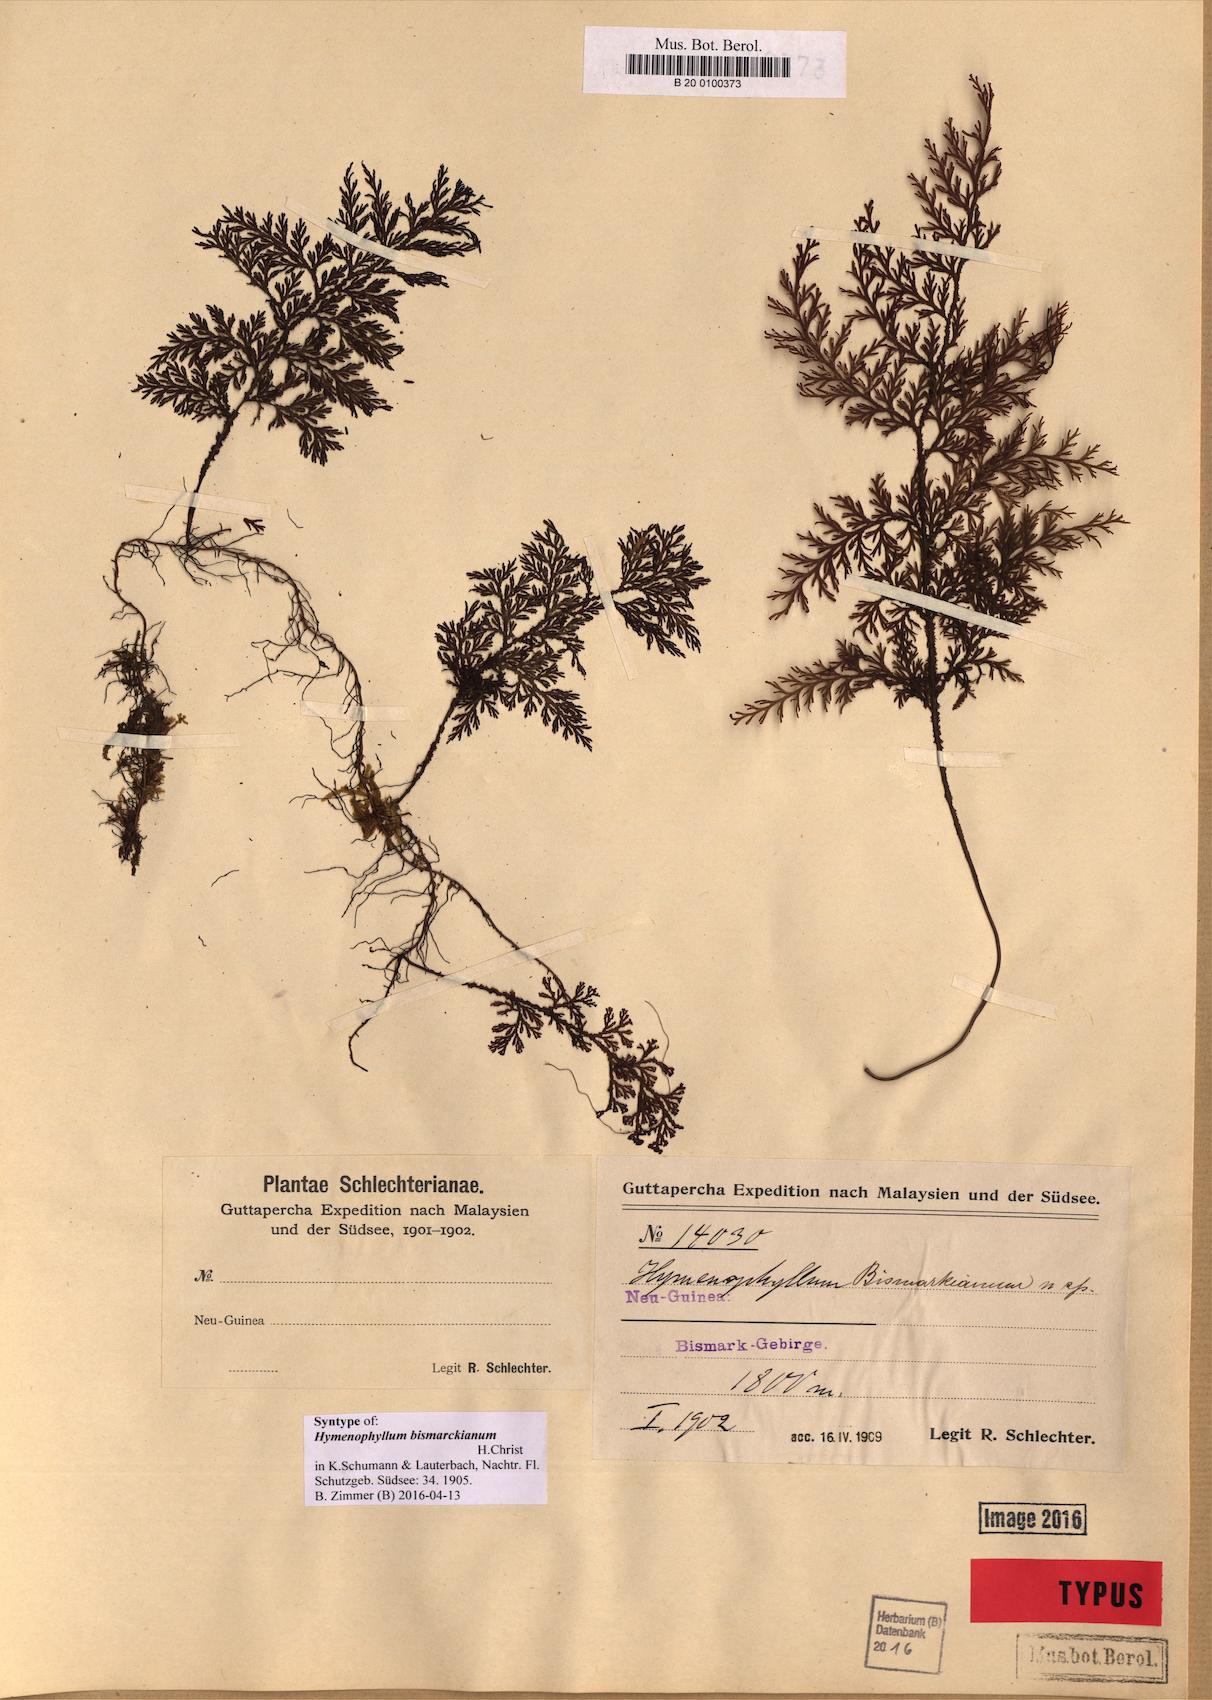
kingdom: Plantae
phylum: Tracheophyta
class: Polypodiopsida
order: Hymenophyllales
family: Hymenophyllaceae
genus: Hymenophyllum
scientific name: Hymenophyllum reinwardtii
